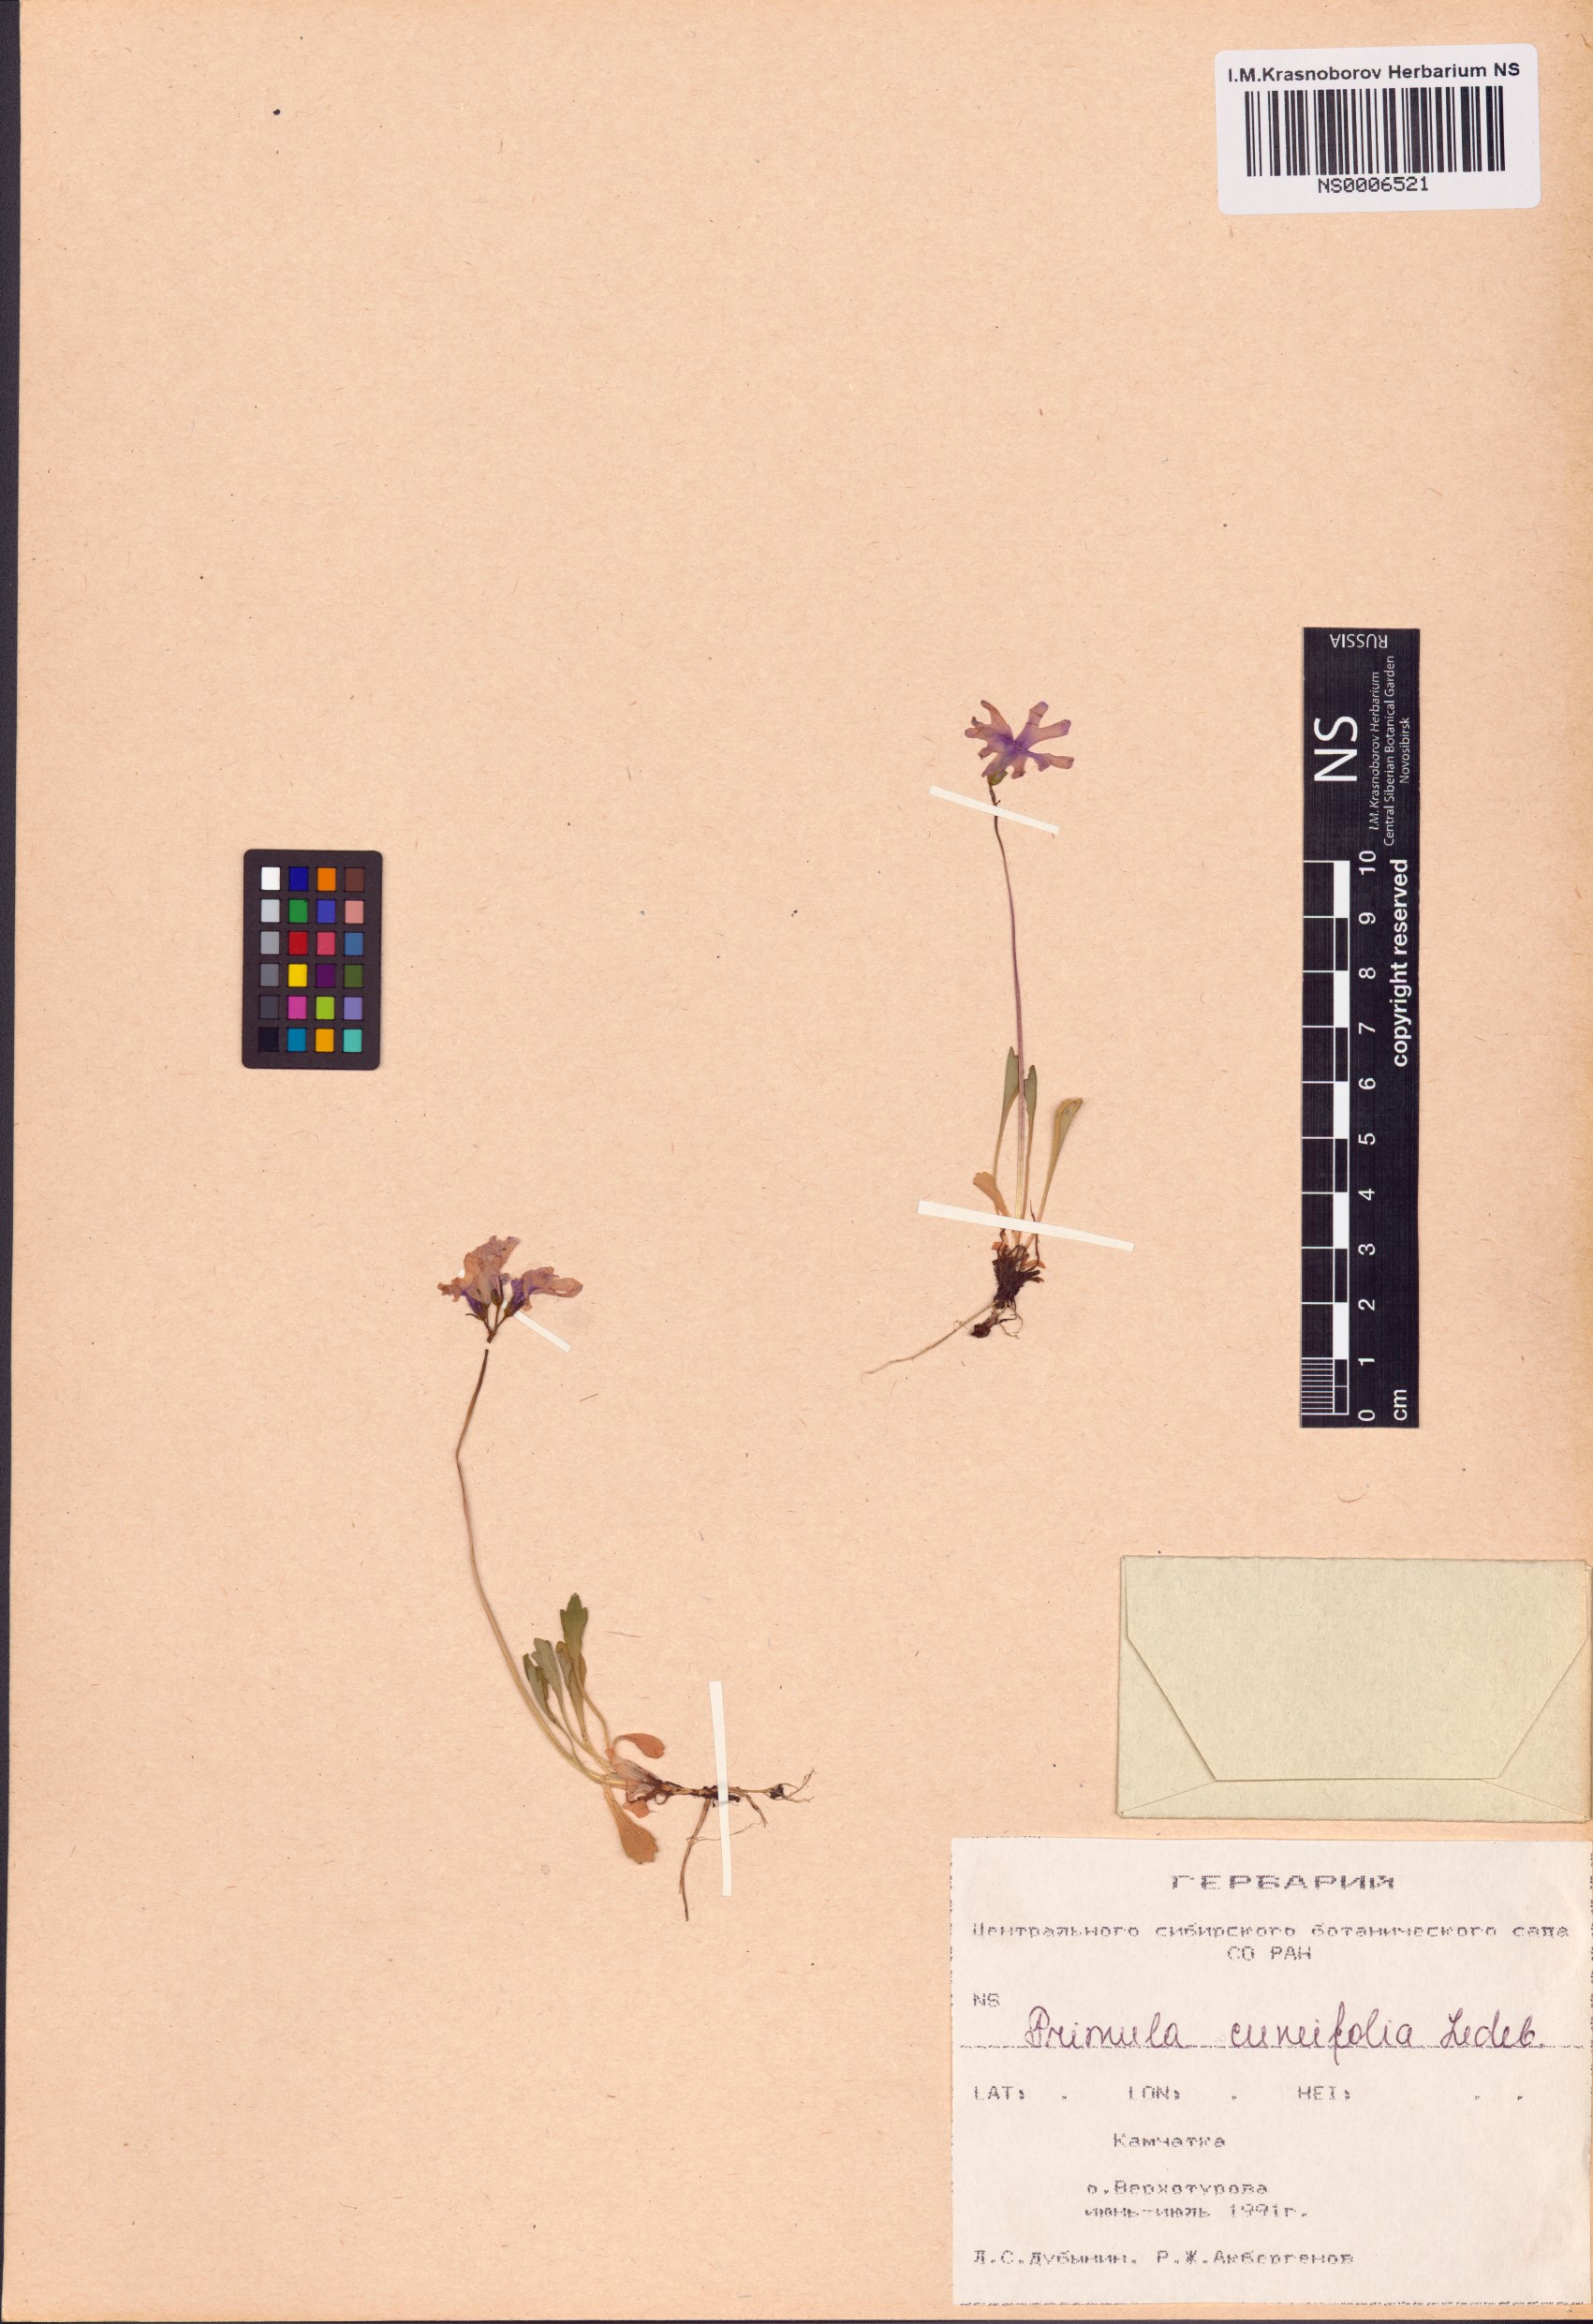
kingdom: Plantae
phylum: Tracheophyta
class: Magnoliopsida
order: Ericales
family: Primulaceae
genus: Primula
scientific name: Primula cuneifolia
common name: Wedge-leaved primrose
